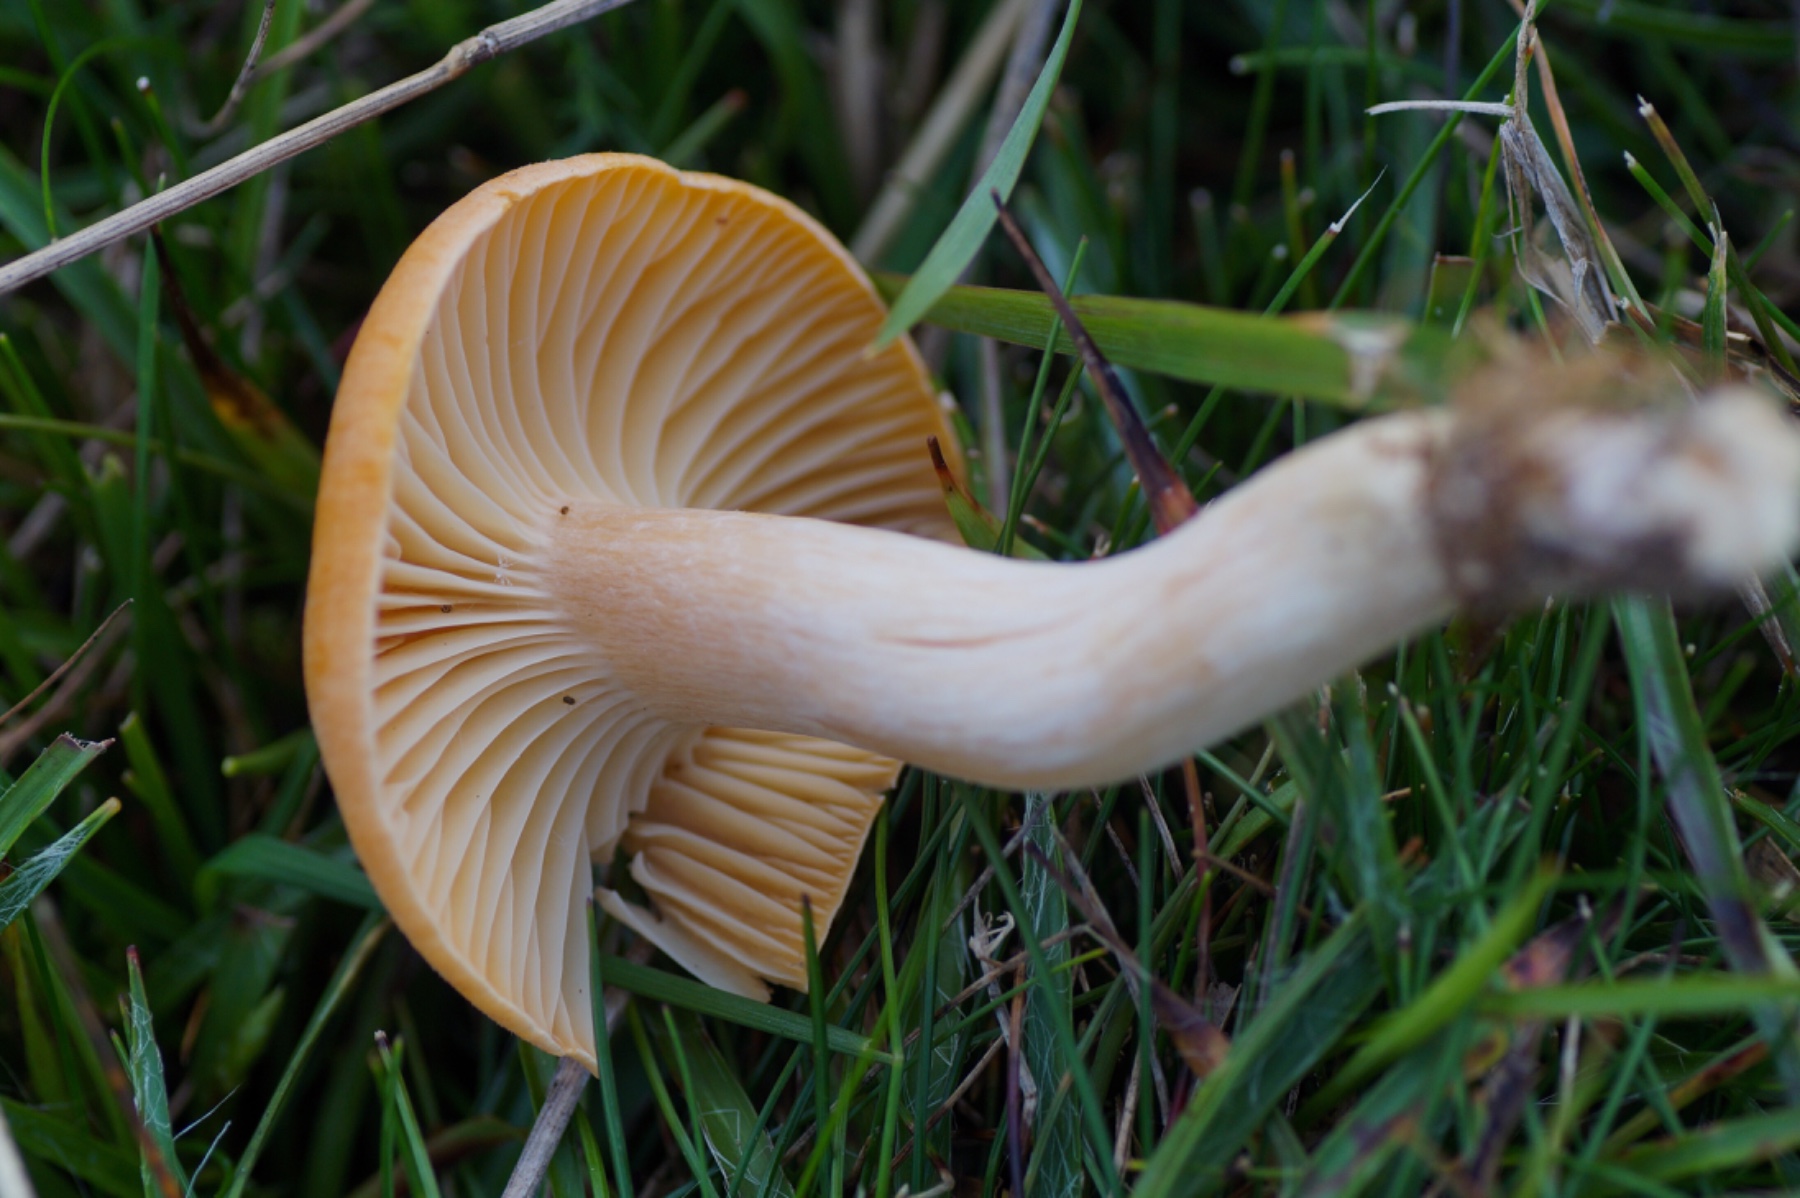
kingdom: Fungi
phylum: Basidiomycota
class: Agaricomycetes
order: Agaricales
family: Hygrophoraceae
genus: Cuphophyllus
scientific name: Cuphophyllus pratensis
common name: eng-vokshat
